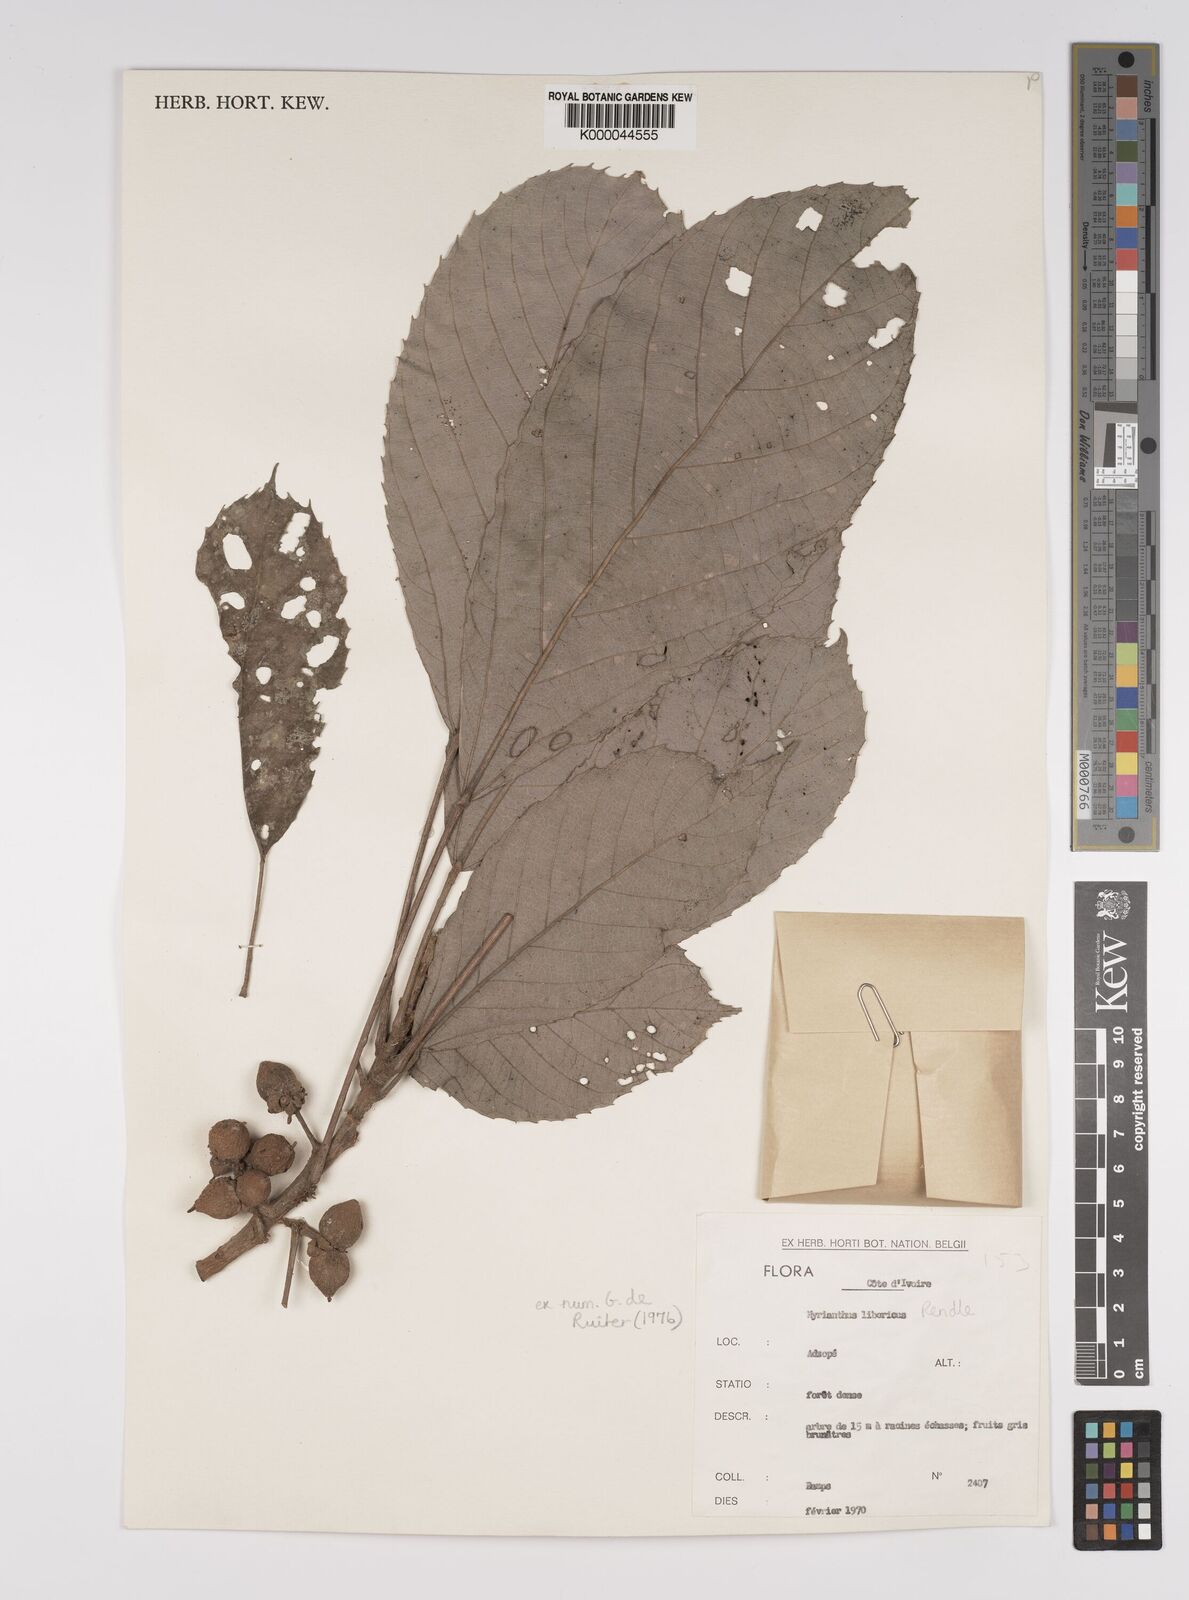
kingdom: Plantae
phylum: Tracheophyta
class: Magnoliopsida
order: Rosales
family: Urticaceae
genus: Myrianthus
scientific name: Myrianthus libericus
